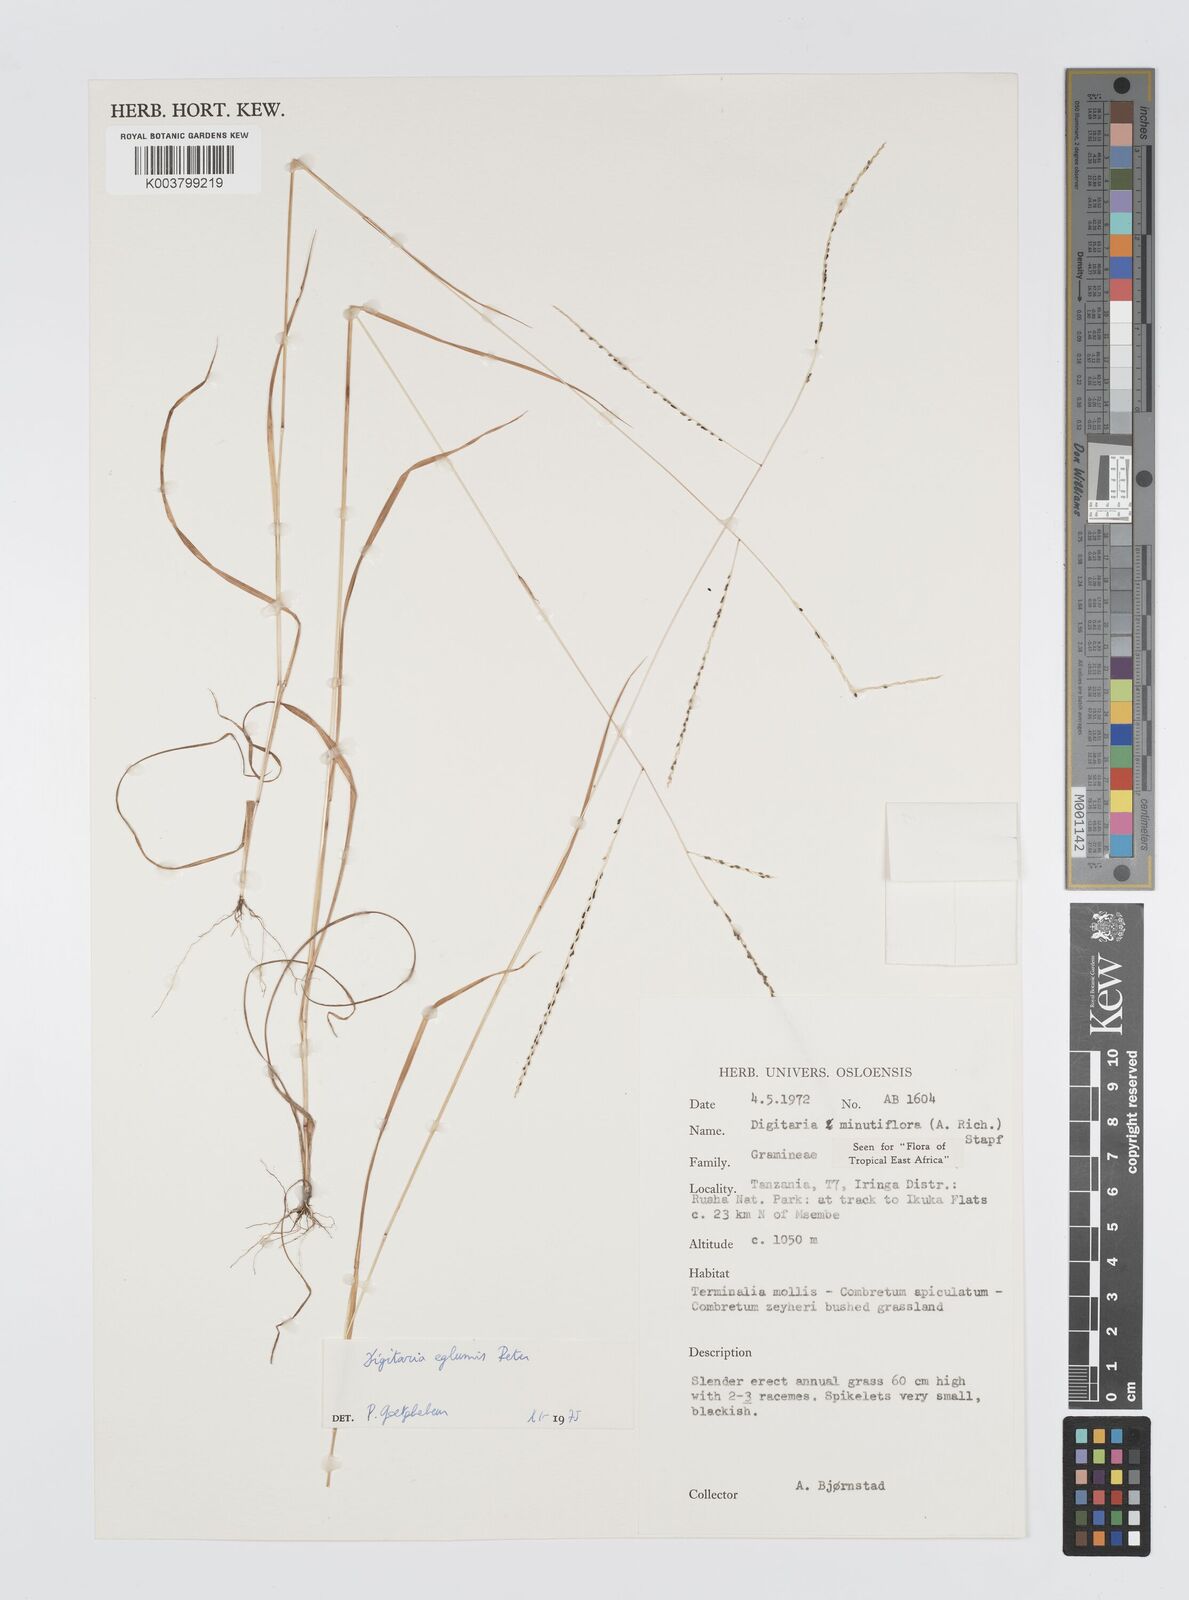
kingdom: Plantae
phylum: Tracheophyta
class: Liliopsida
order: Poales
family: Poaceae
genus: Digitaria
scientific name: Digitaria pseudodiagonalis
